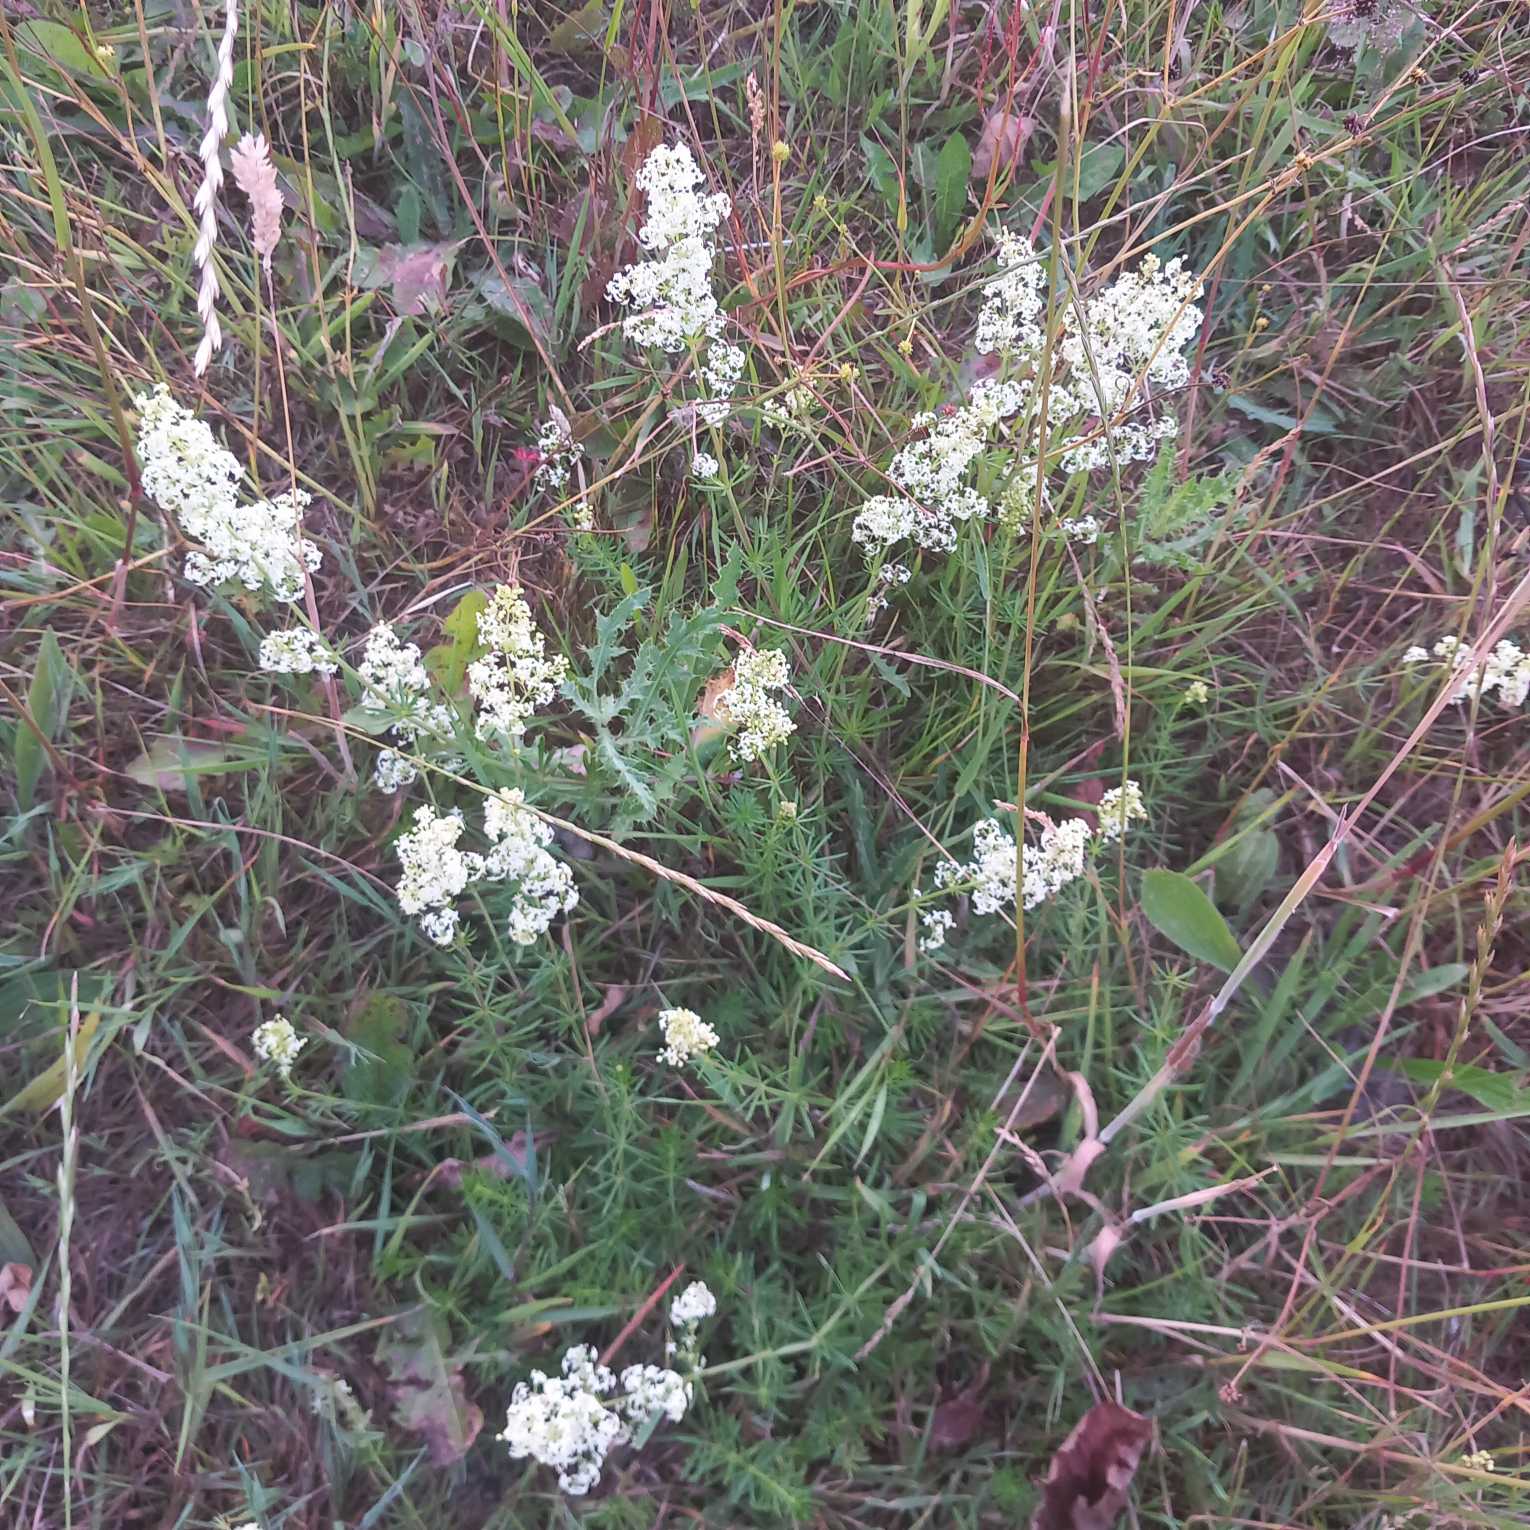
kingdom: Plantae
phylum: Tracheophyta
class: Magnoliopsida
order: Gentianales
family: Rubiaceae
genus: Galium
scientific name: Galium mollugo
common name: Hvid snerre
